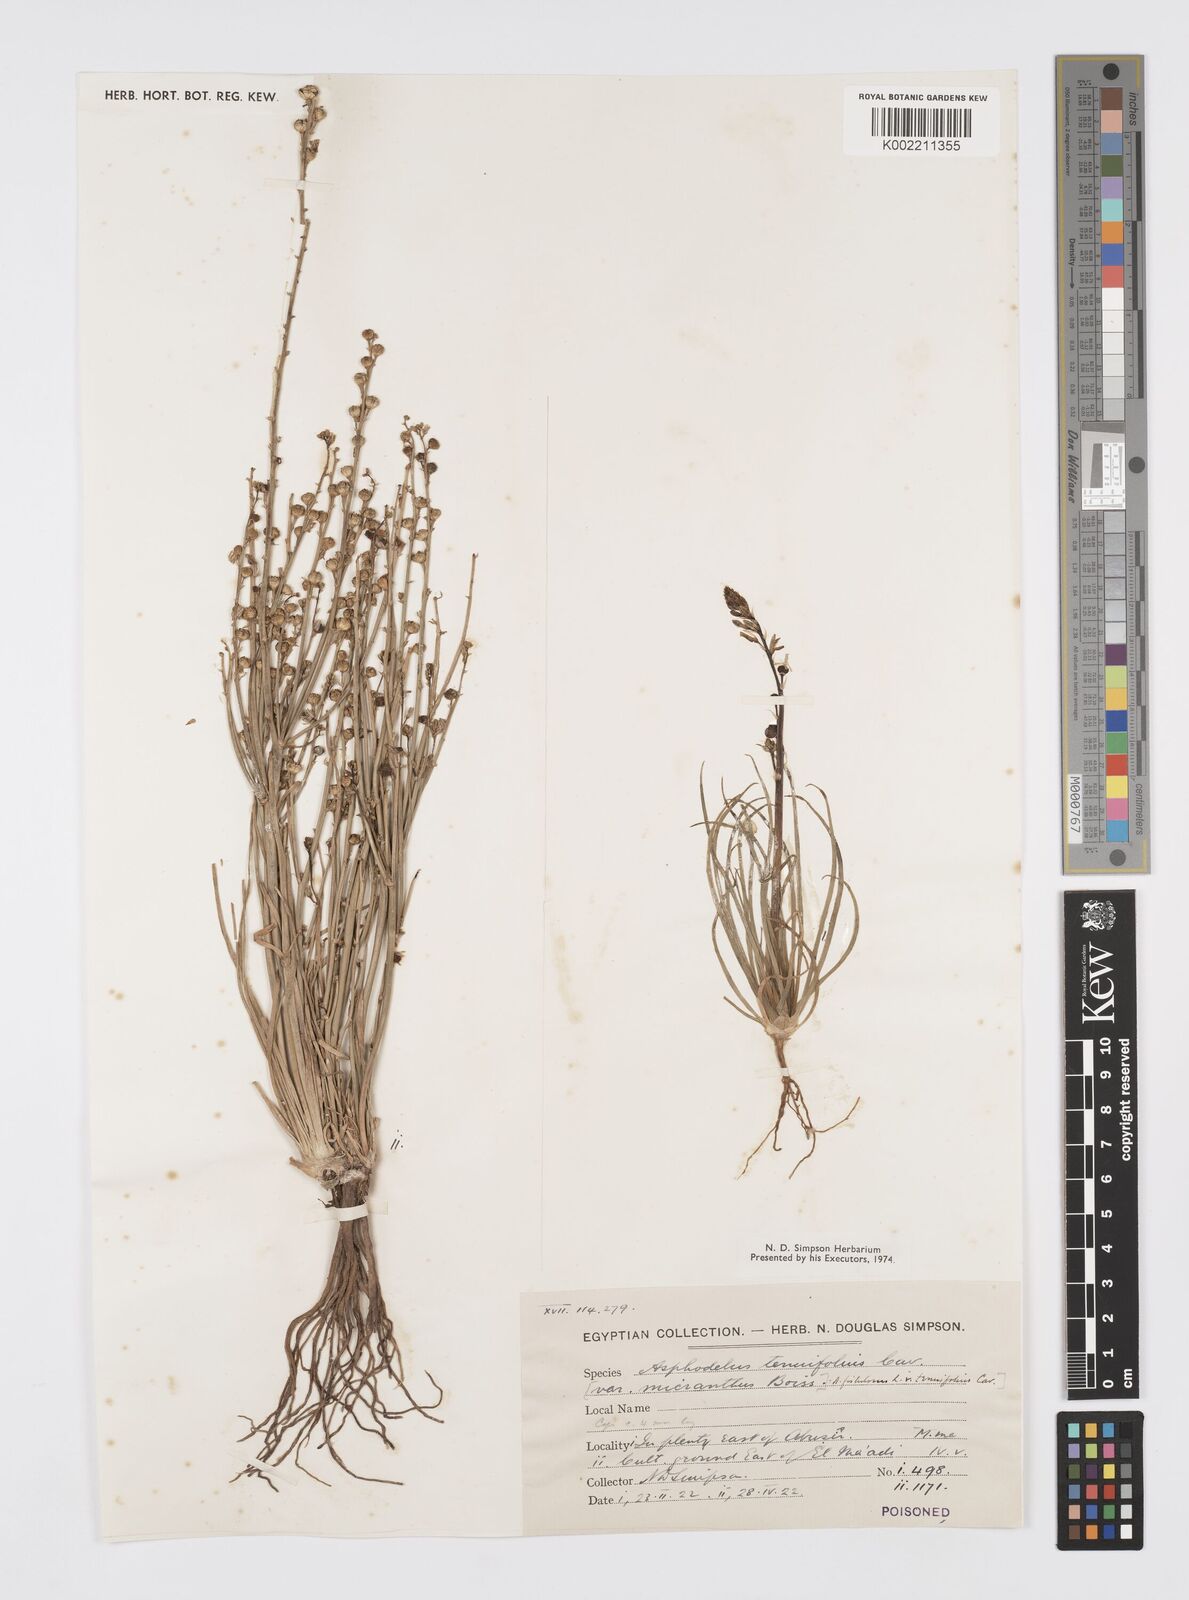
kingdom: Plantae
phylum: Tracheophyta
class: Liliopsida
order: Asparagales
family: Asphodelaceae
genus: Asphodelus
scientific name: Asphodelus tenuifolius
